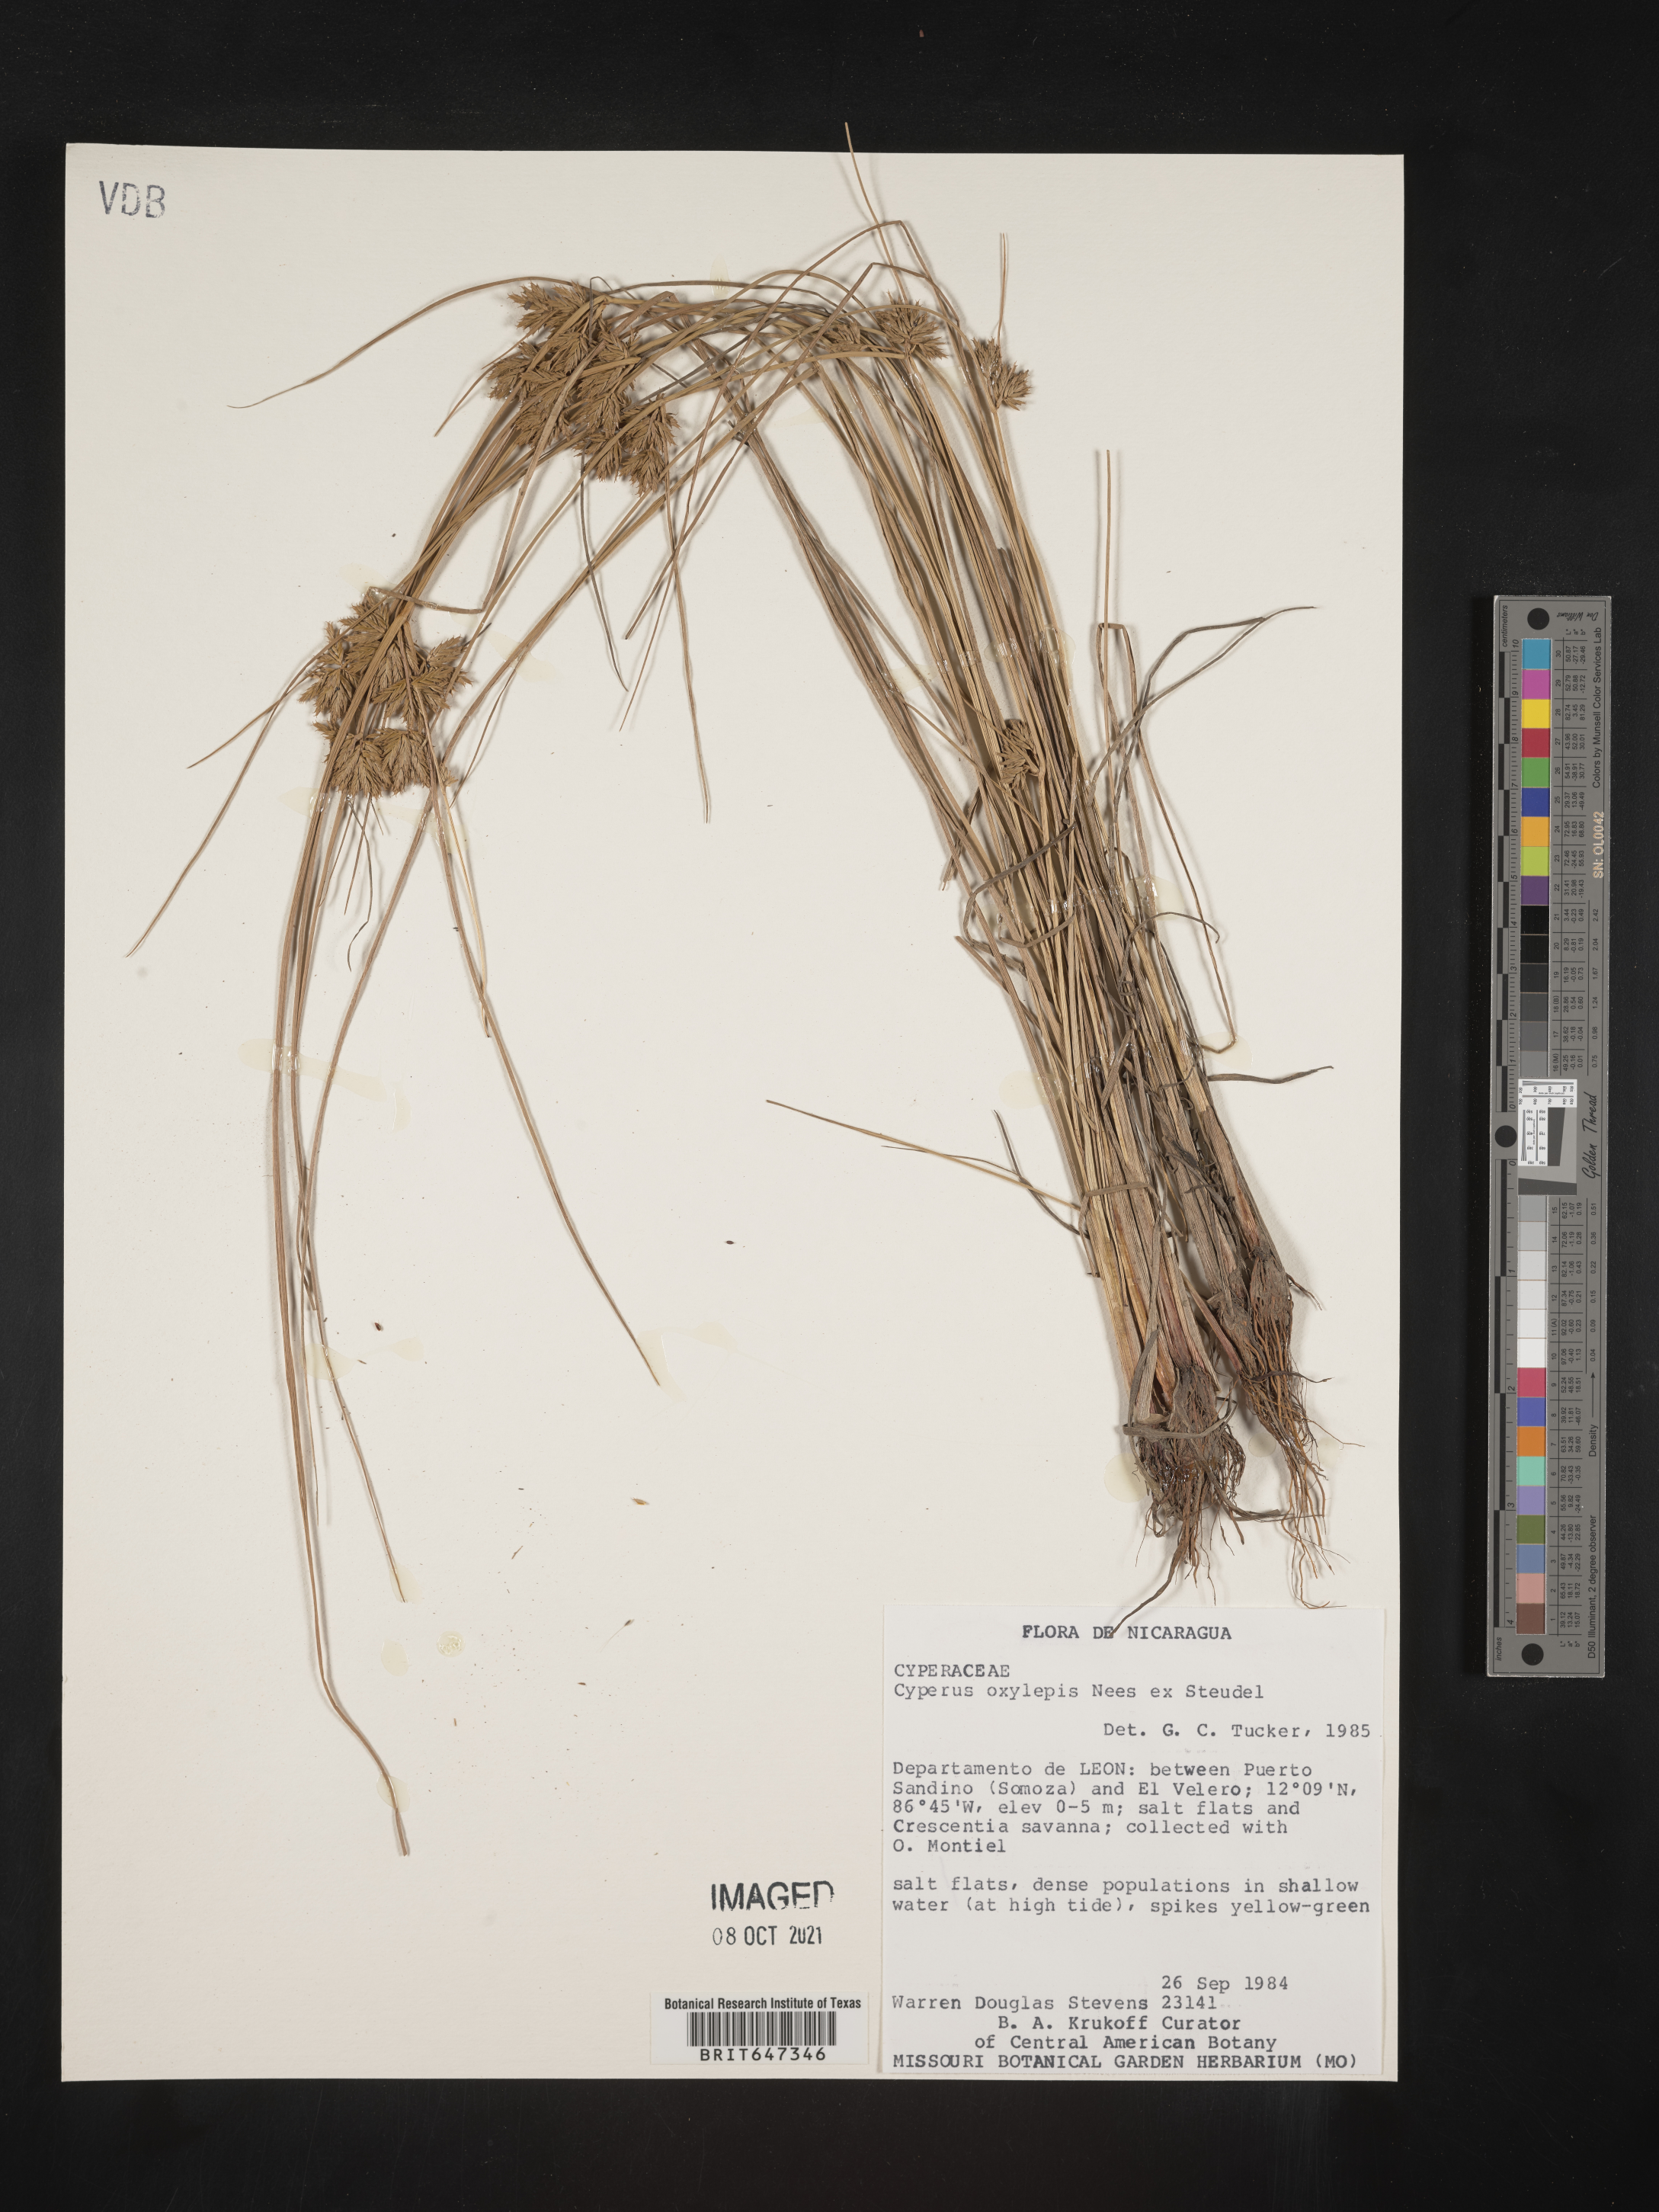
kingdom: Plantae
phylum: Tracheophyta
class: Liliopsida
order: Poales
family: Cyperaceae
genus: Cyperus
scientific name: Cyperus oxylepis
